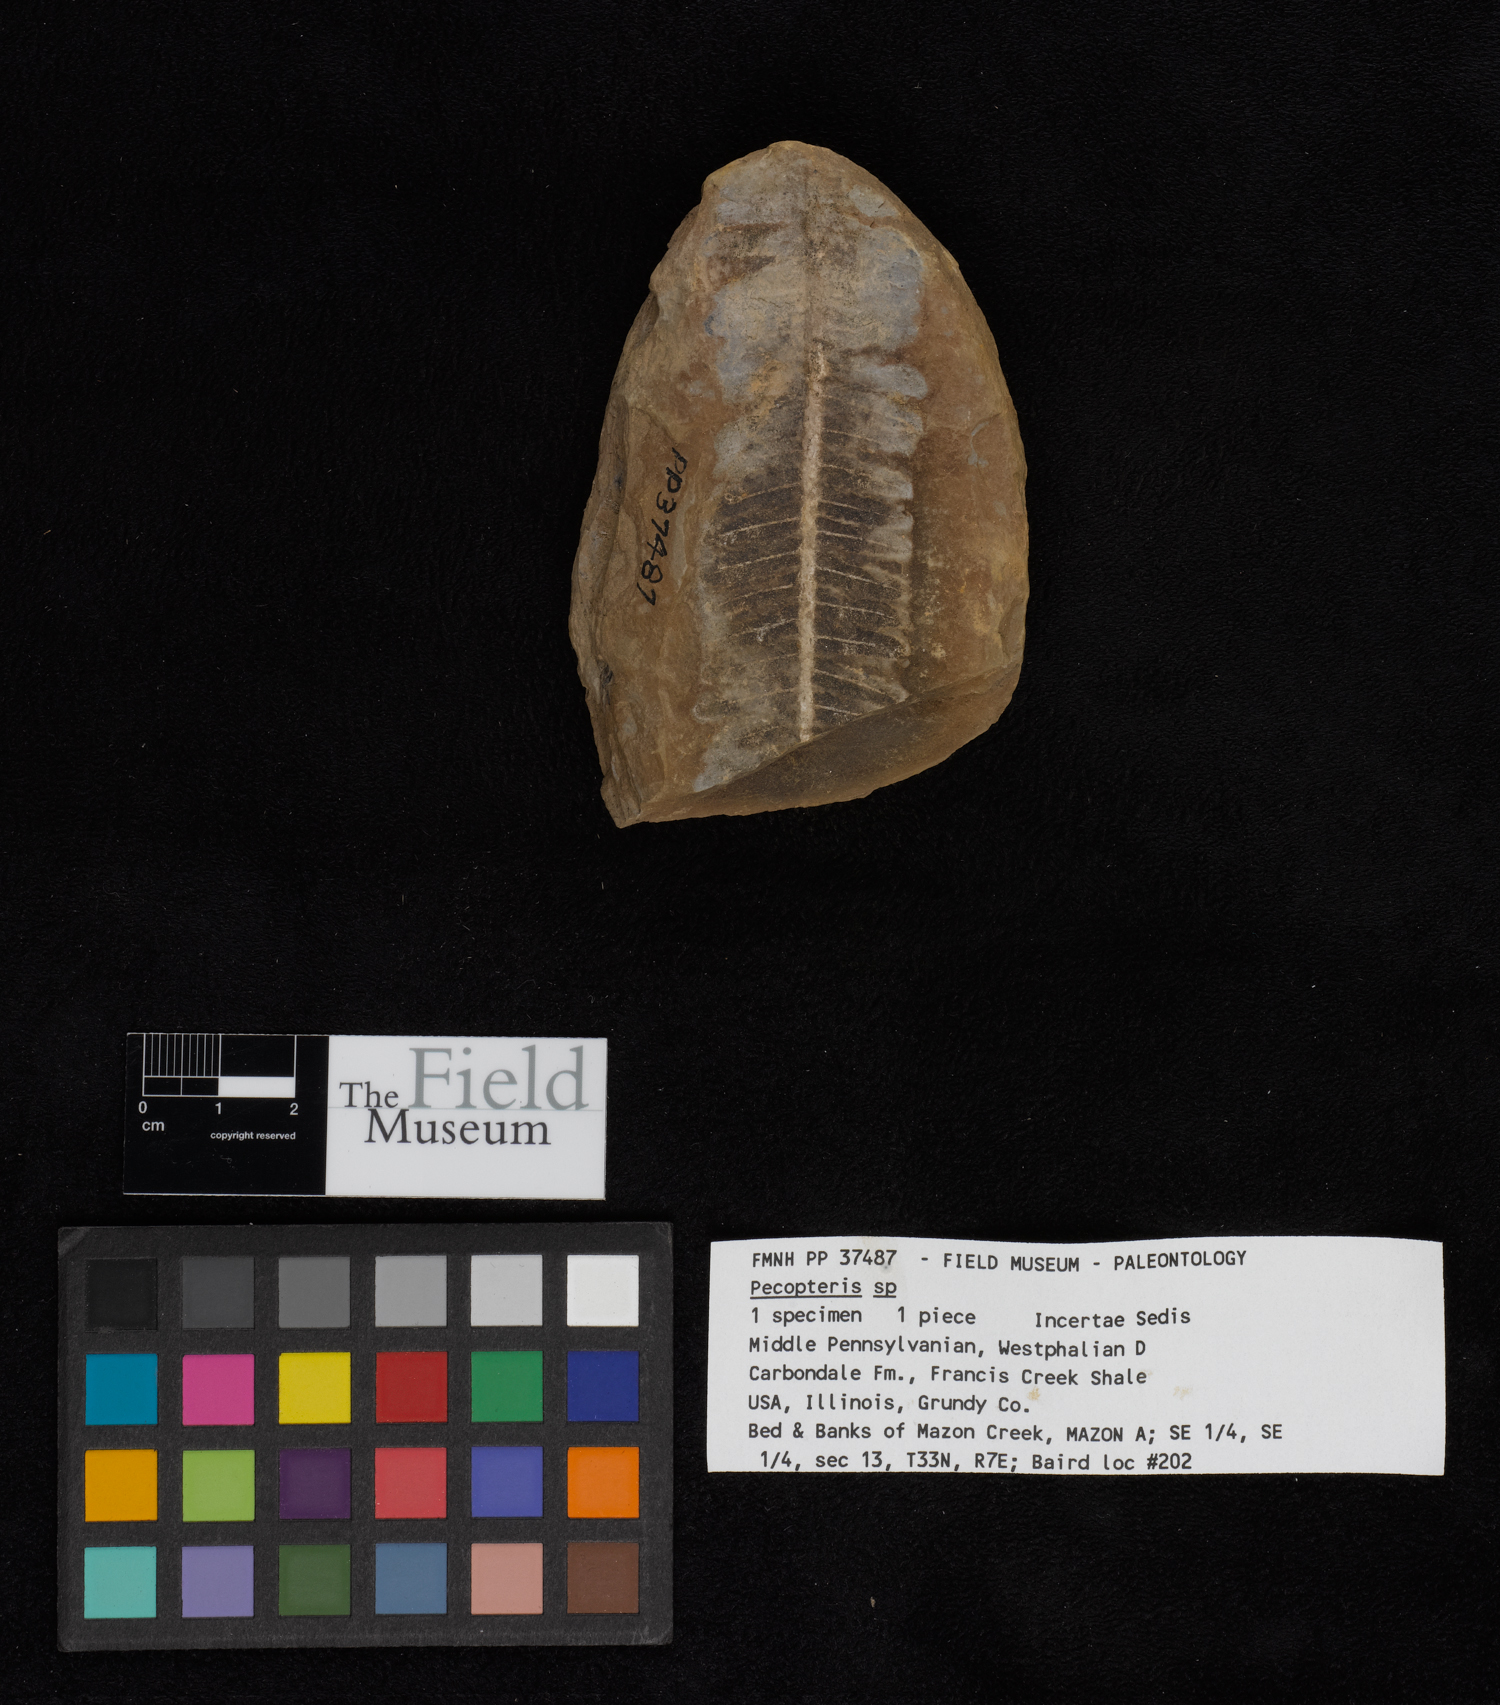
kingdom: Plantae
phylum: Tracheophyta
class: Polypodiopsida
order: Marattiales
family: Asterothecaceae
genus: Pecopteris
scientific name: Pecopteris
